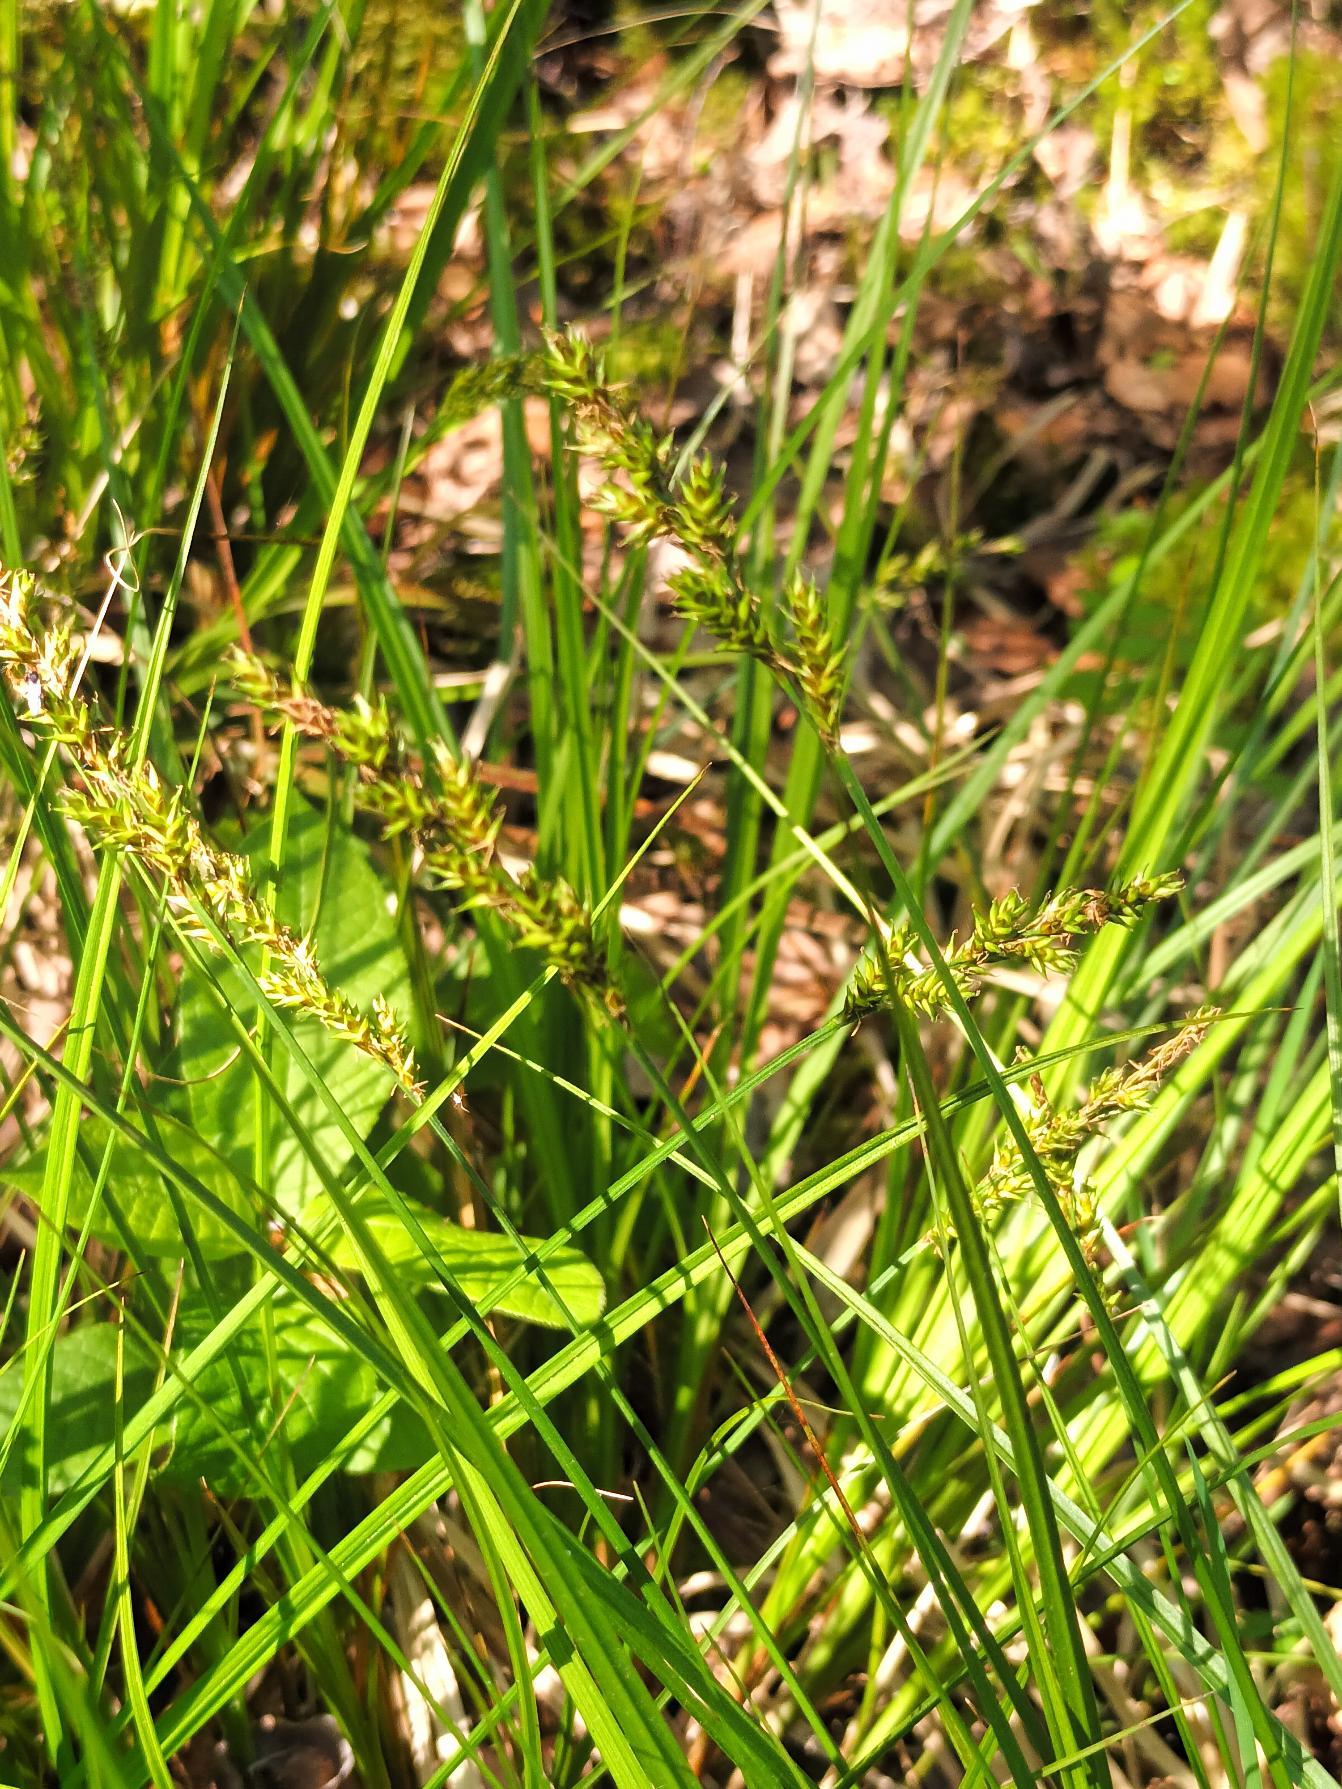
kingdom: Plantae
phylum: Tracheophyta
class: Liliopsida
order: Poales
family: Cyperaceae
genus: Carex
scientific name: Carex elongata
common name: Forlænget star
